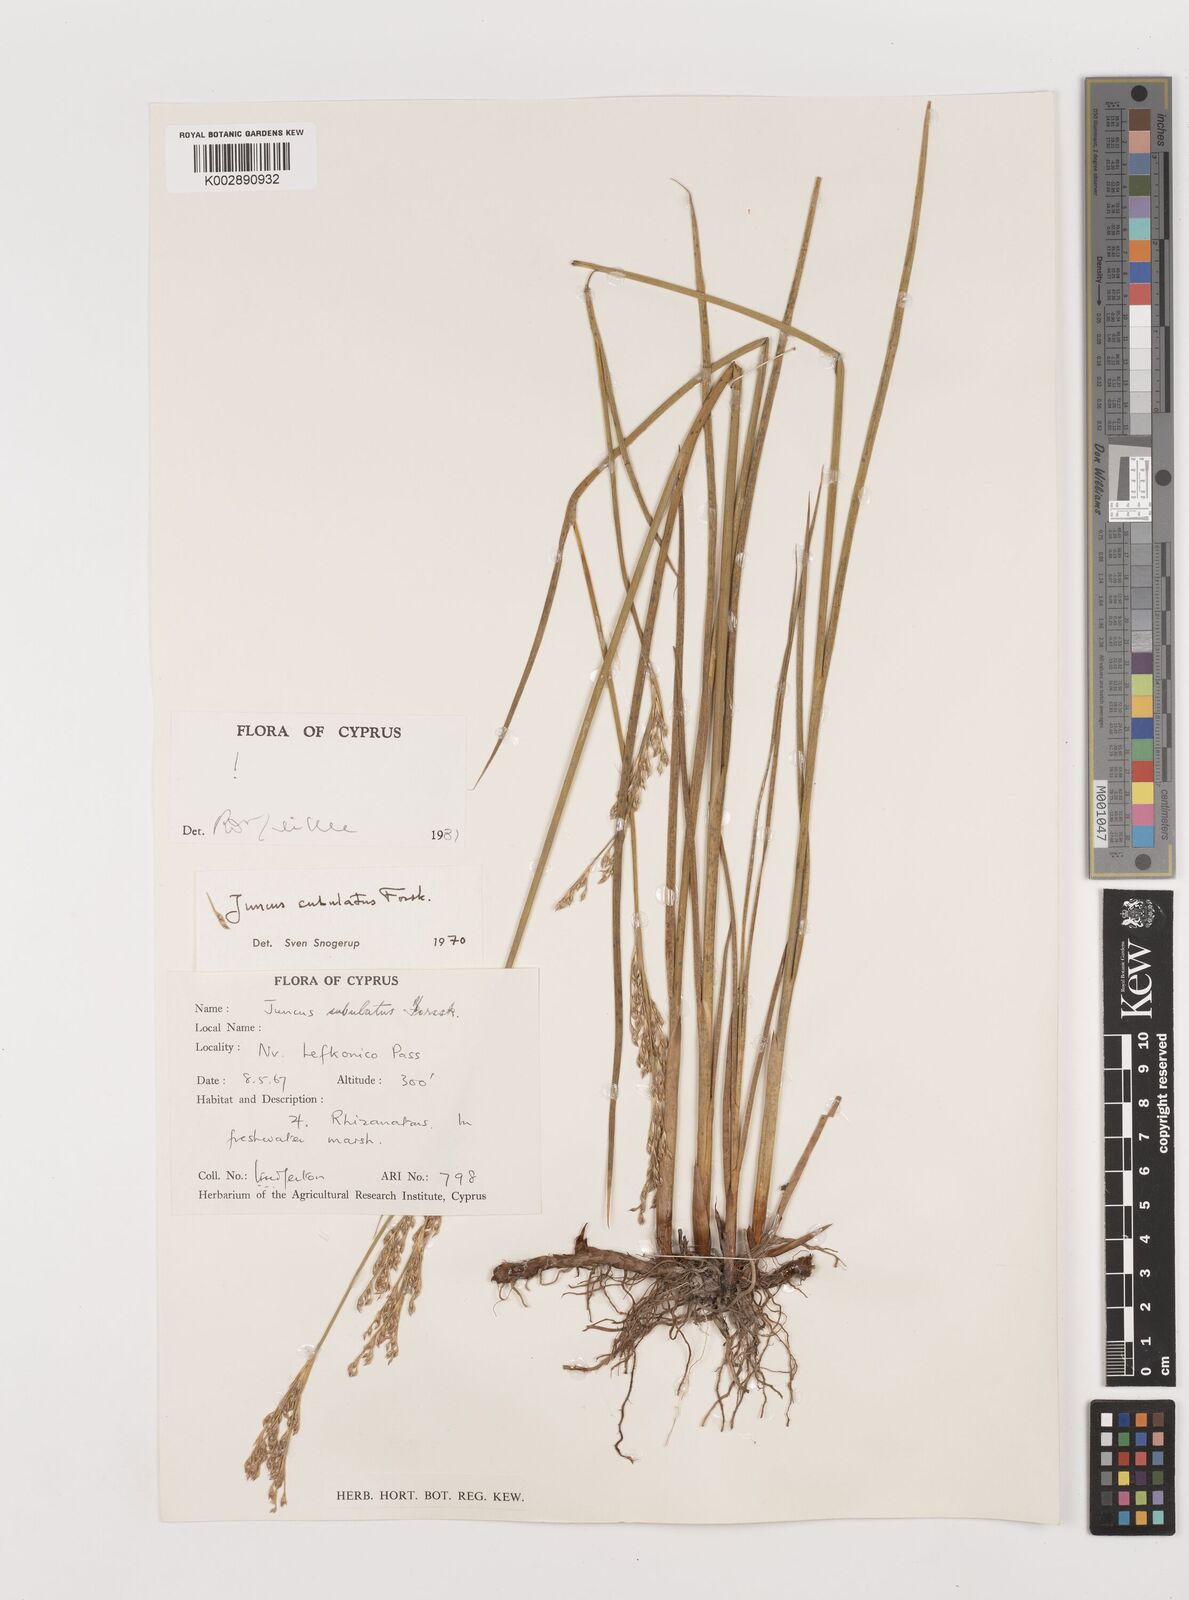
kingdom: Plantae
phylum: Tracheophyta
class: Liliopsida
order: Poales
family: Juncaceae
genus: Juncus
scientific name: Juncus subulatus
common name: Somerset rush
